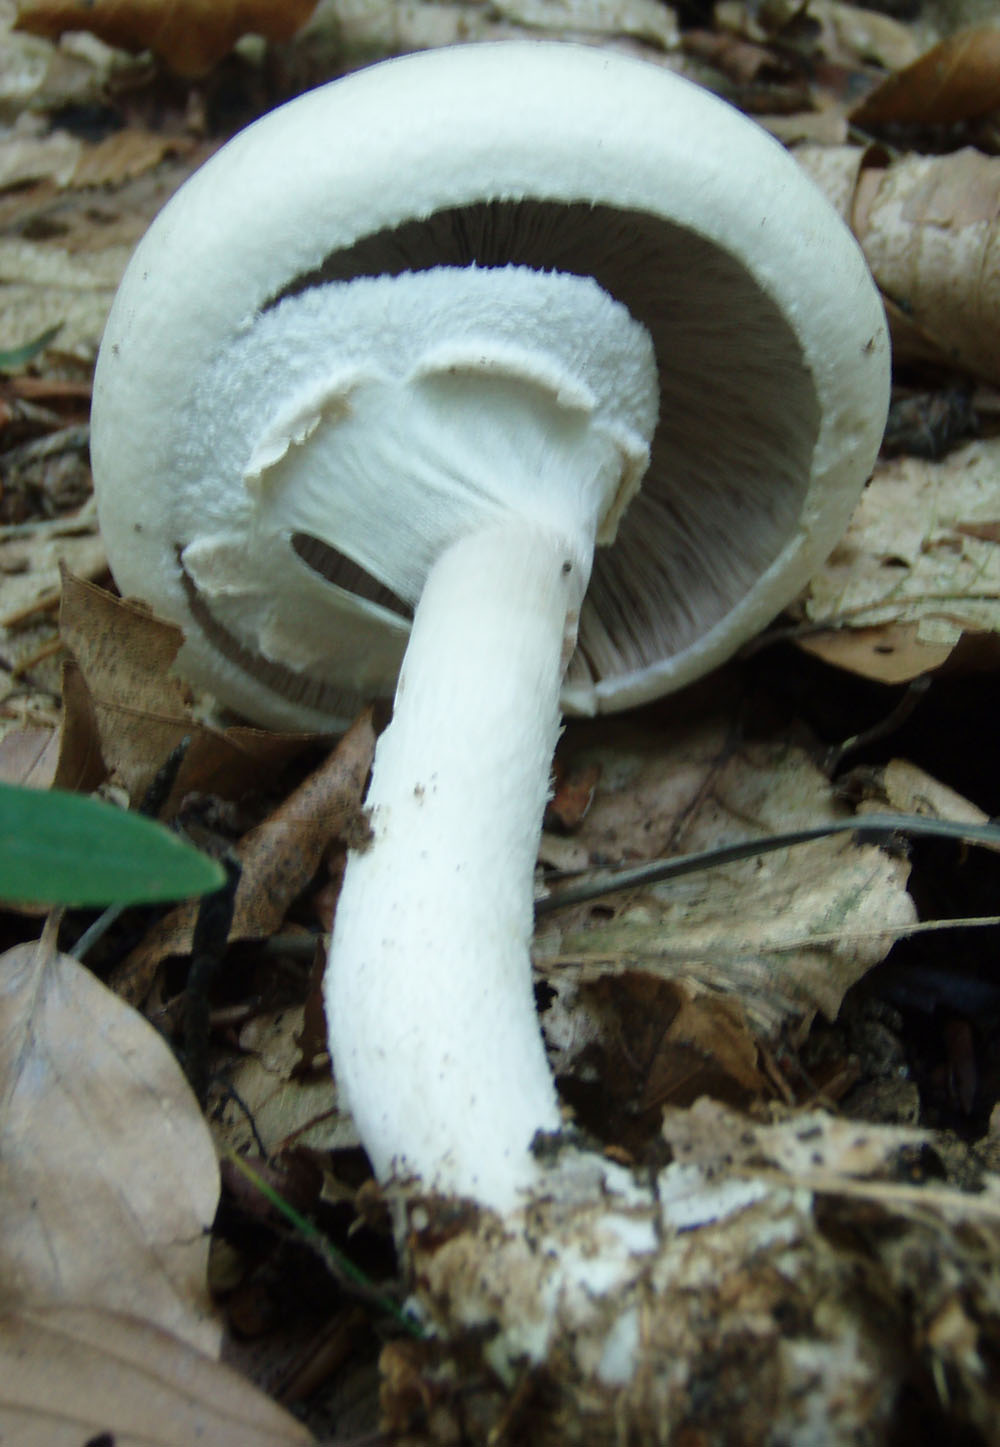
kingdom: Fungi
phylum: Basidiomycota
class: Agaricomycetes
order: Agaricales
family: Agaricaceae
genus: Agaricus
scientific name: Agaricus sylvicola
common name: gulhvid champignon
